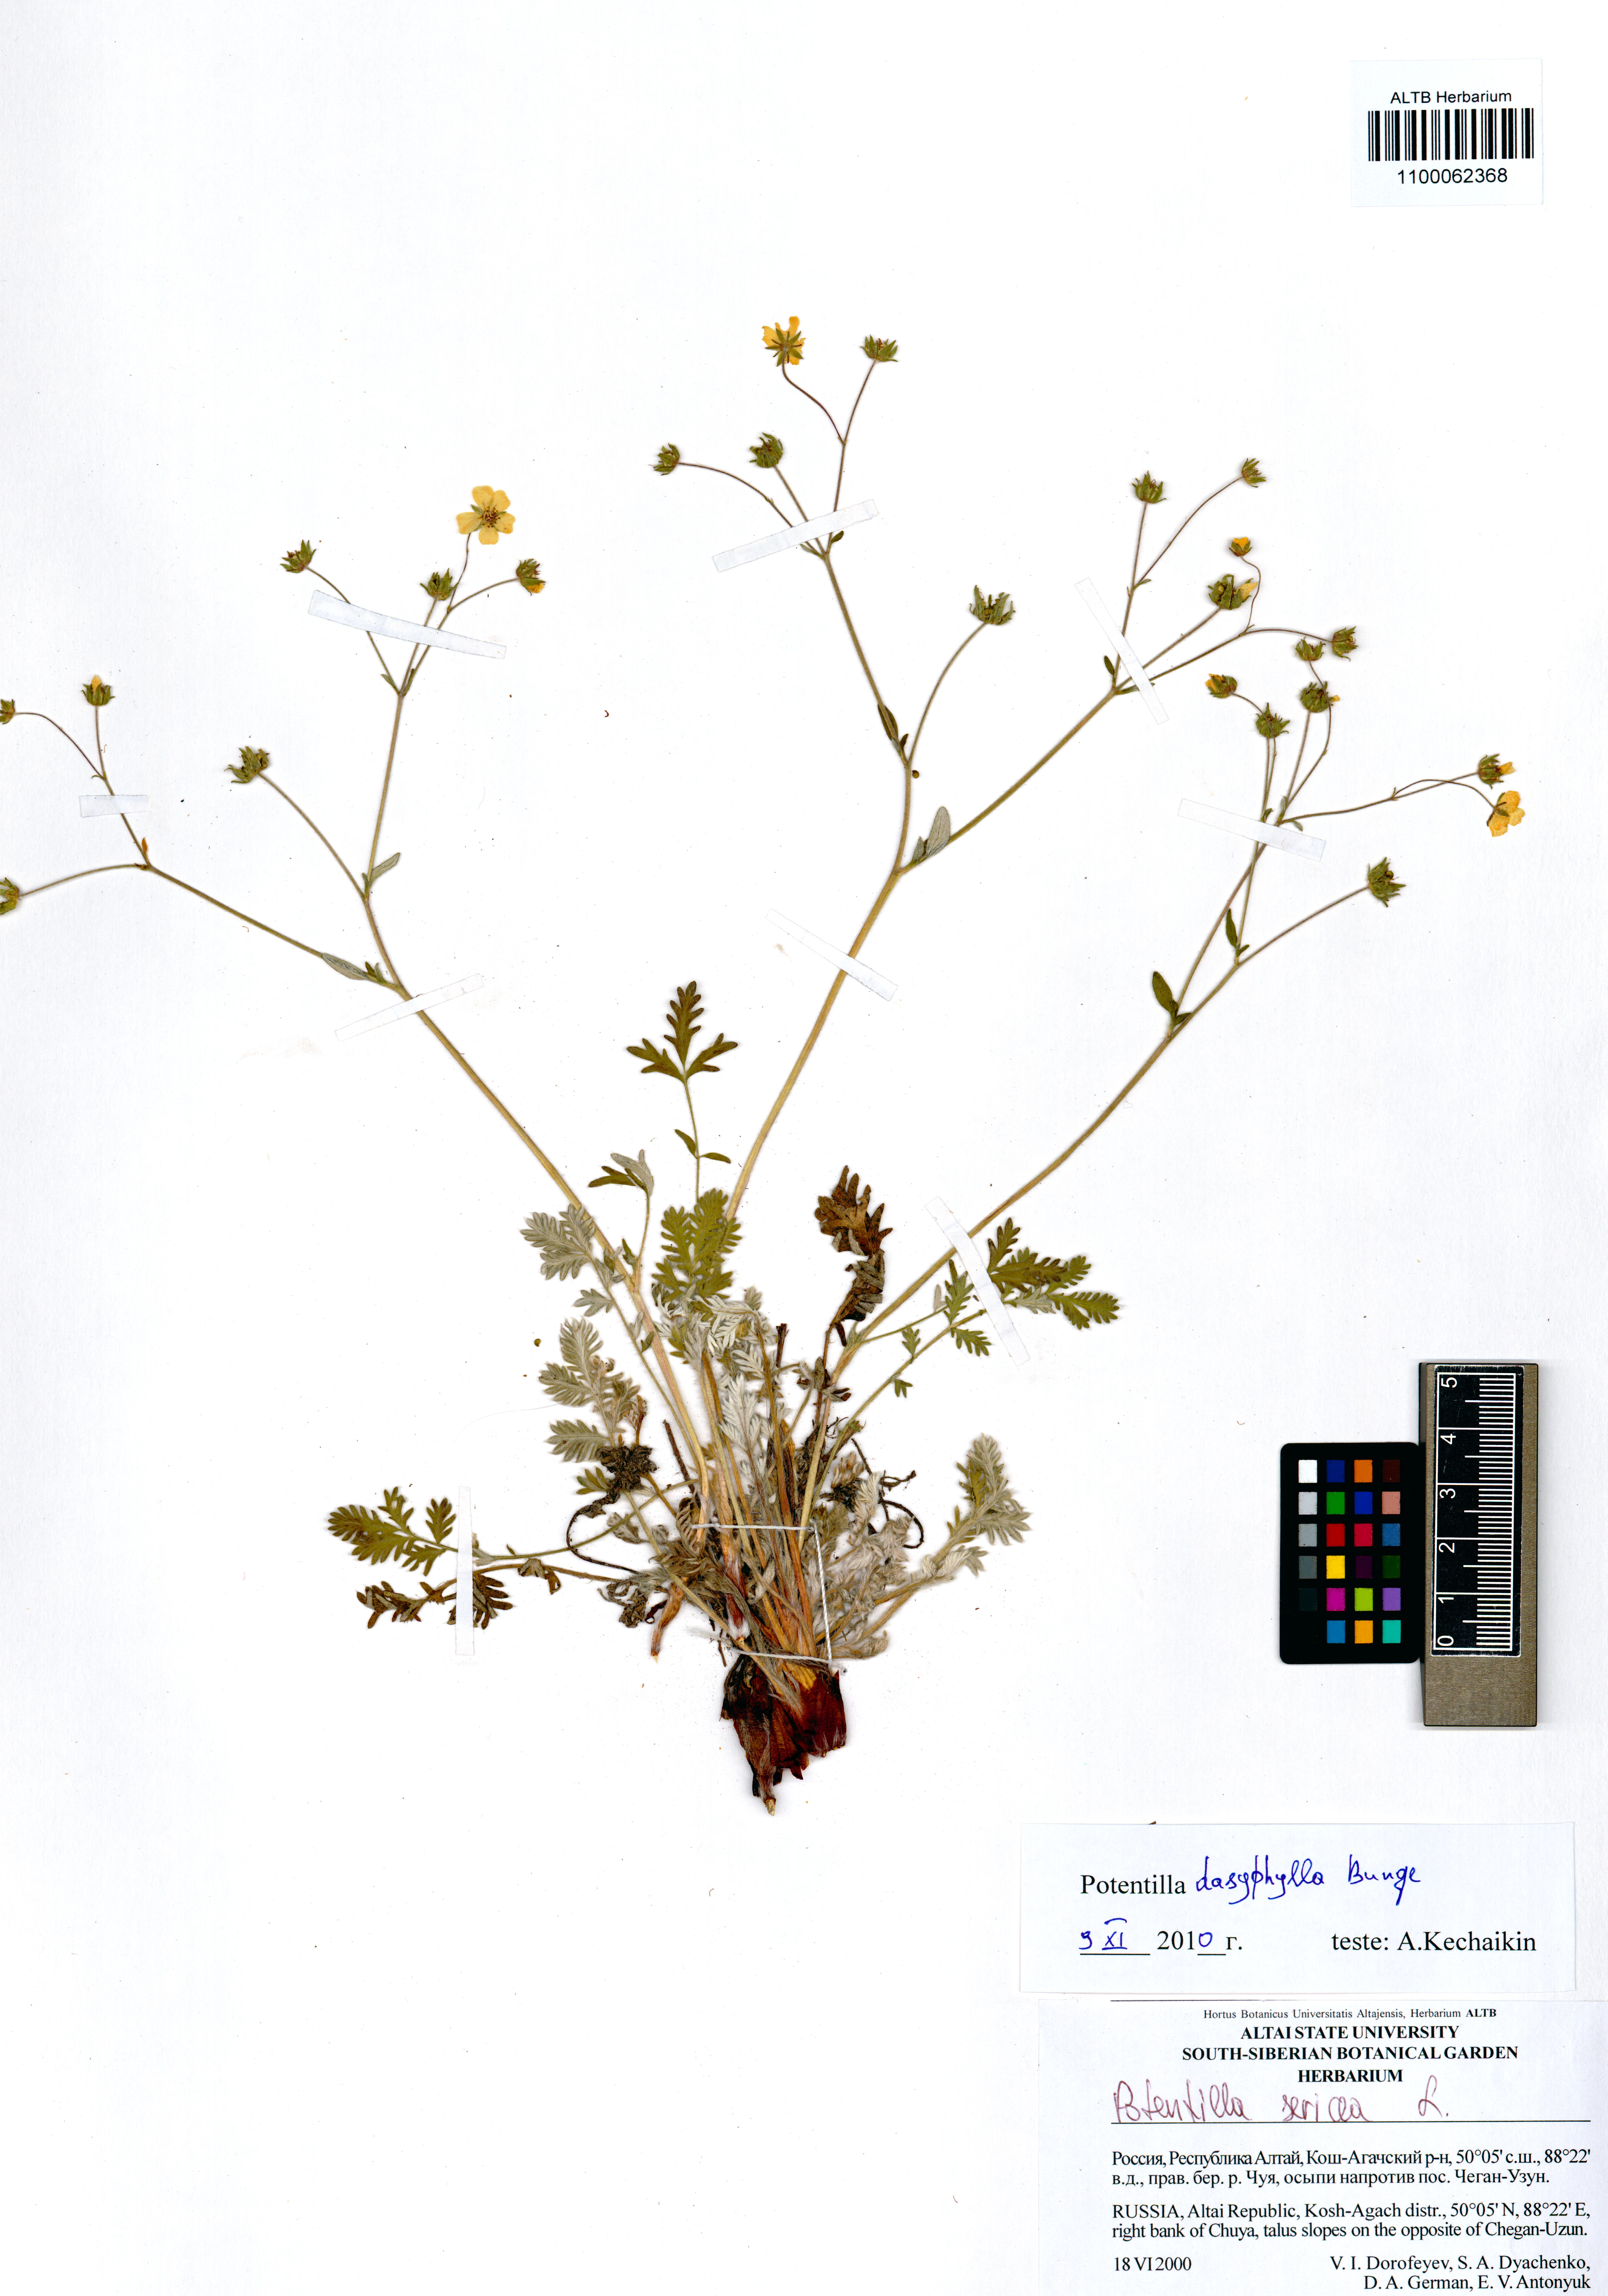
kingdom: Plantae
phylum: Tracheophyta
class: Magnoliopsida
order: Rosales
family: Rosaceae
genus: Potentilla
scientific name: Potentilla sericea
